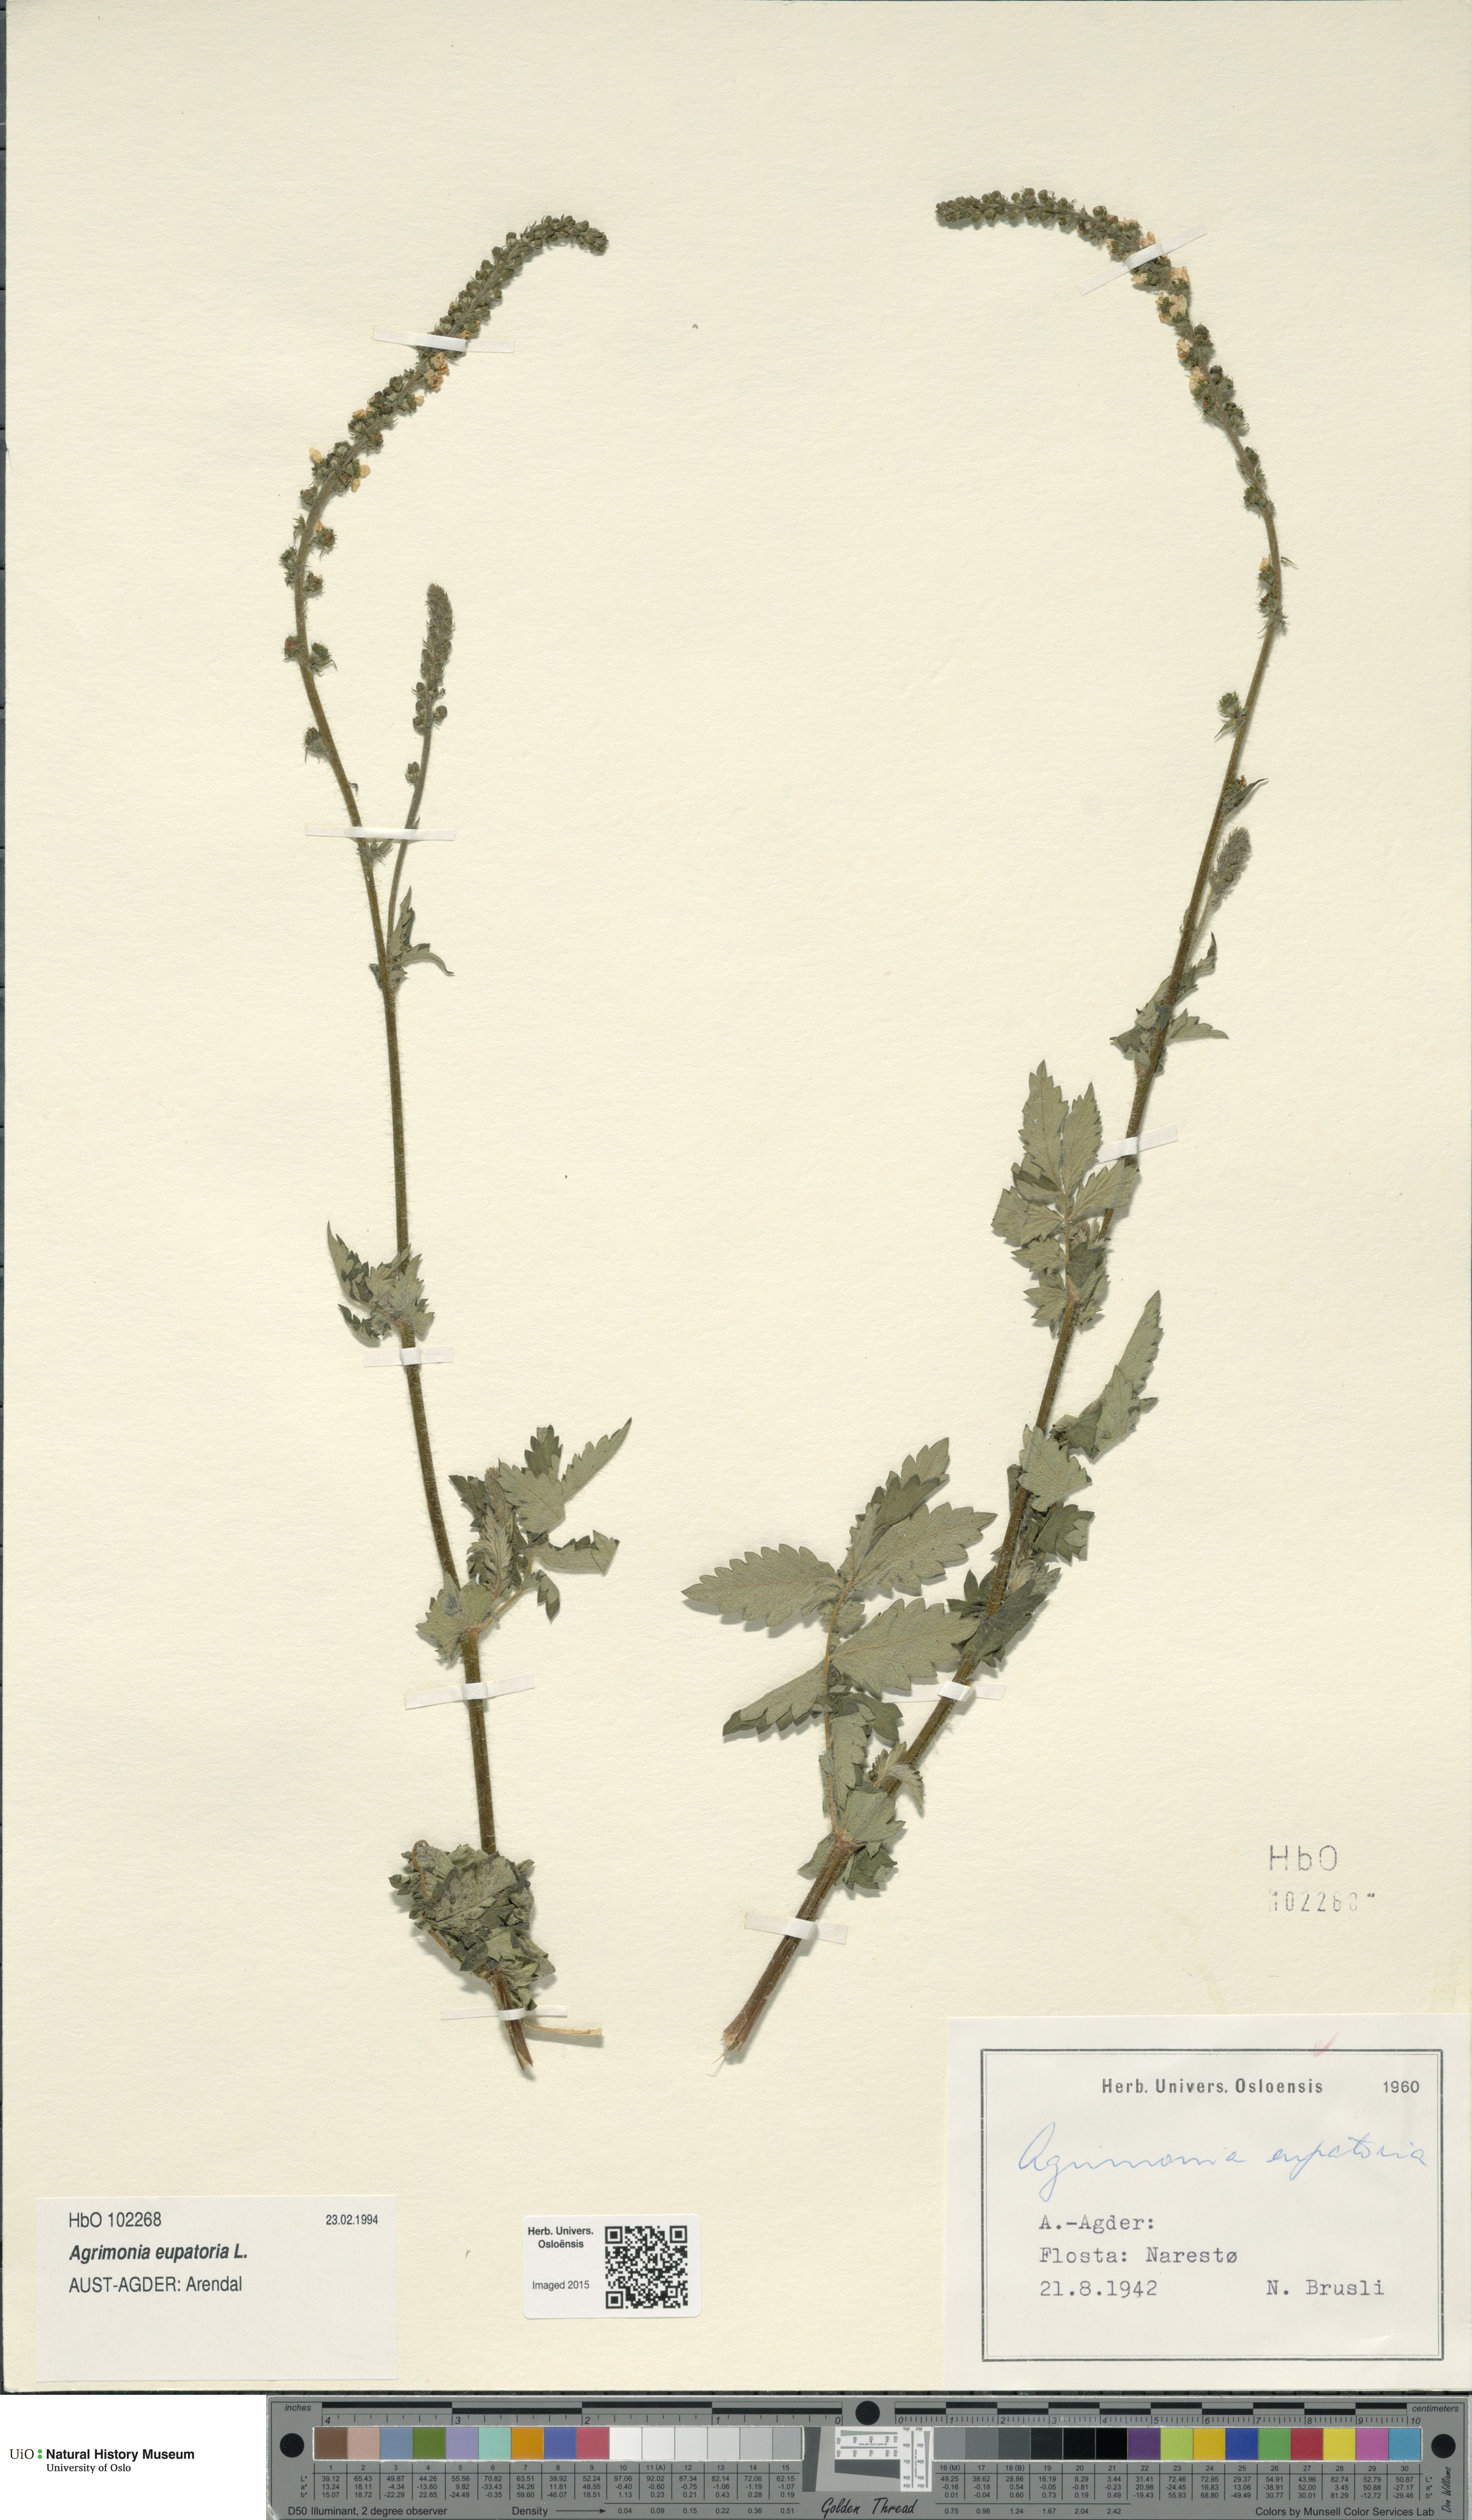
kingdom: Plantae
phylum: Tracheophyta
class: Magnoliopsida
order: Rosales
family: Rosaceae
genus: Agrimonia
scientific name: Agrimonia eupatoria
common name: Agrimony
